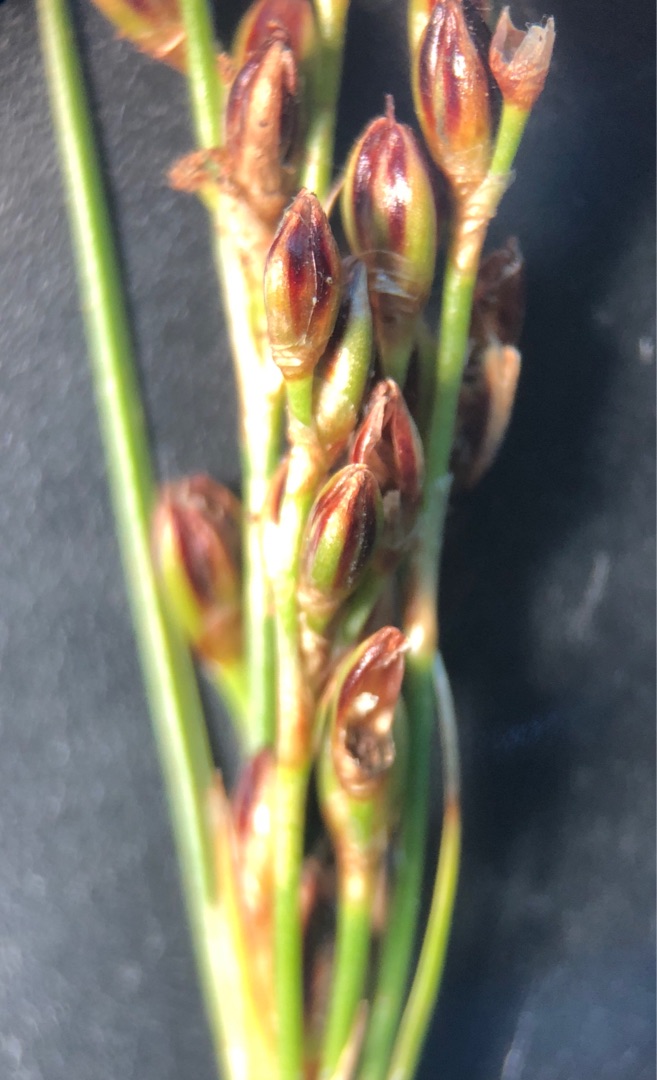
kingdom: Plantae
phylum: Tracheophyta
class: Liliopsida
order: Poales
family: Juncaceae
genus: Juncus
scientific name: Juncus gerardi
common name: Harril
